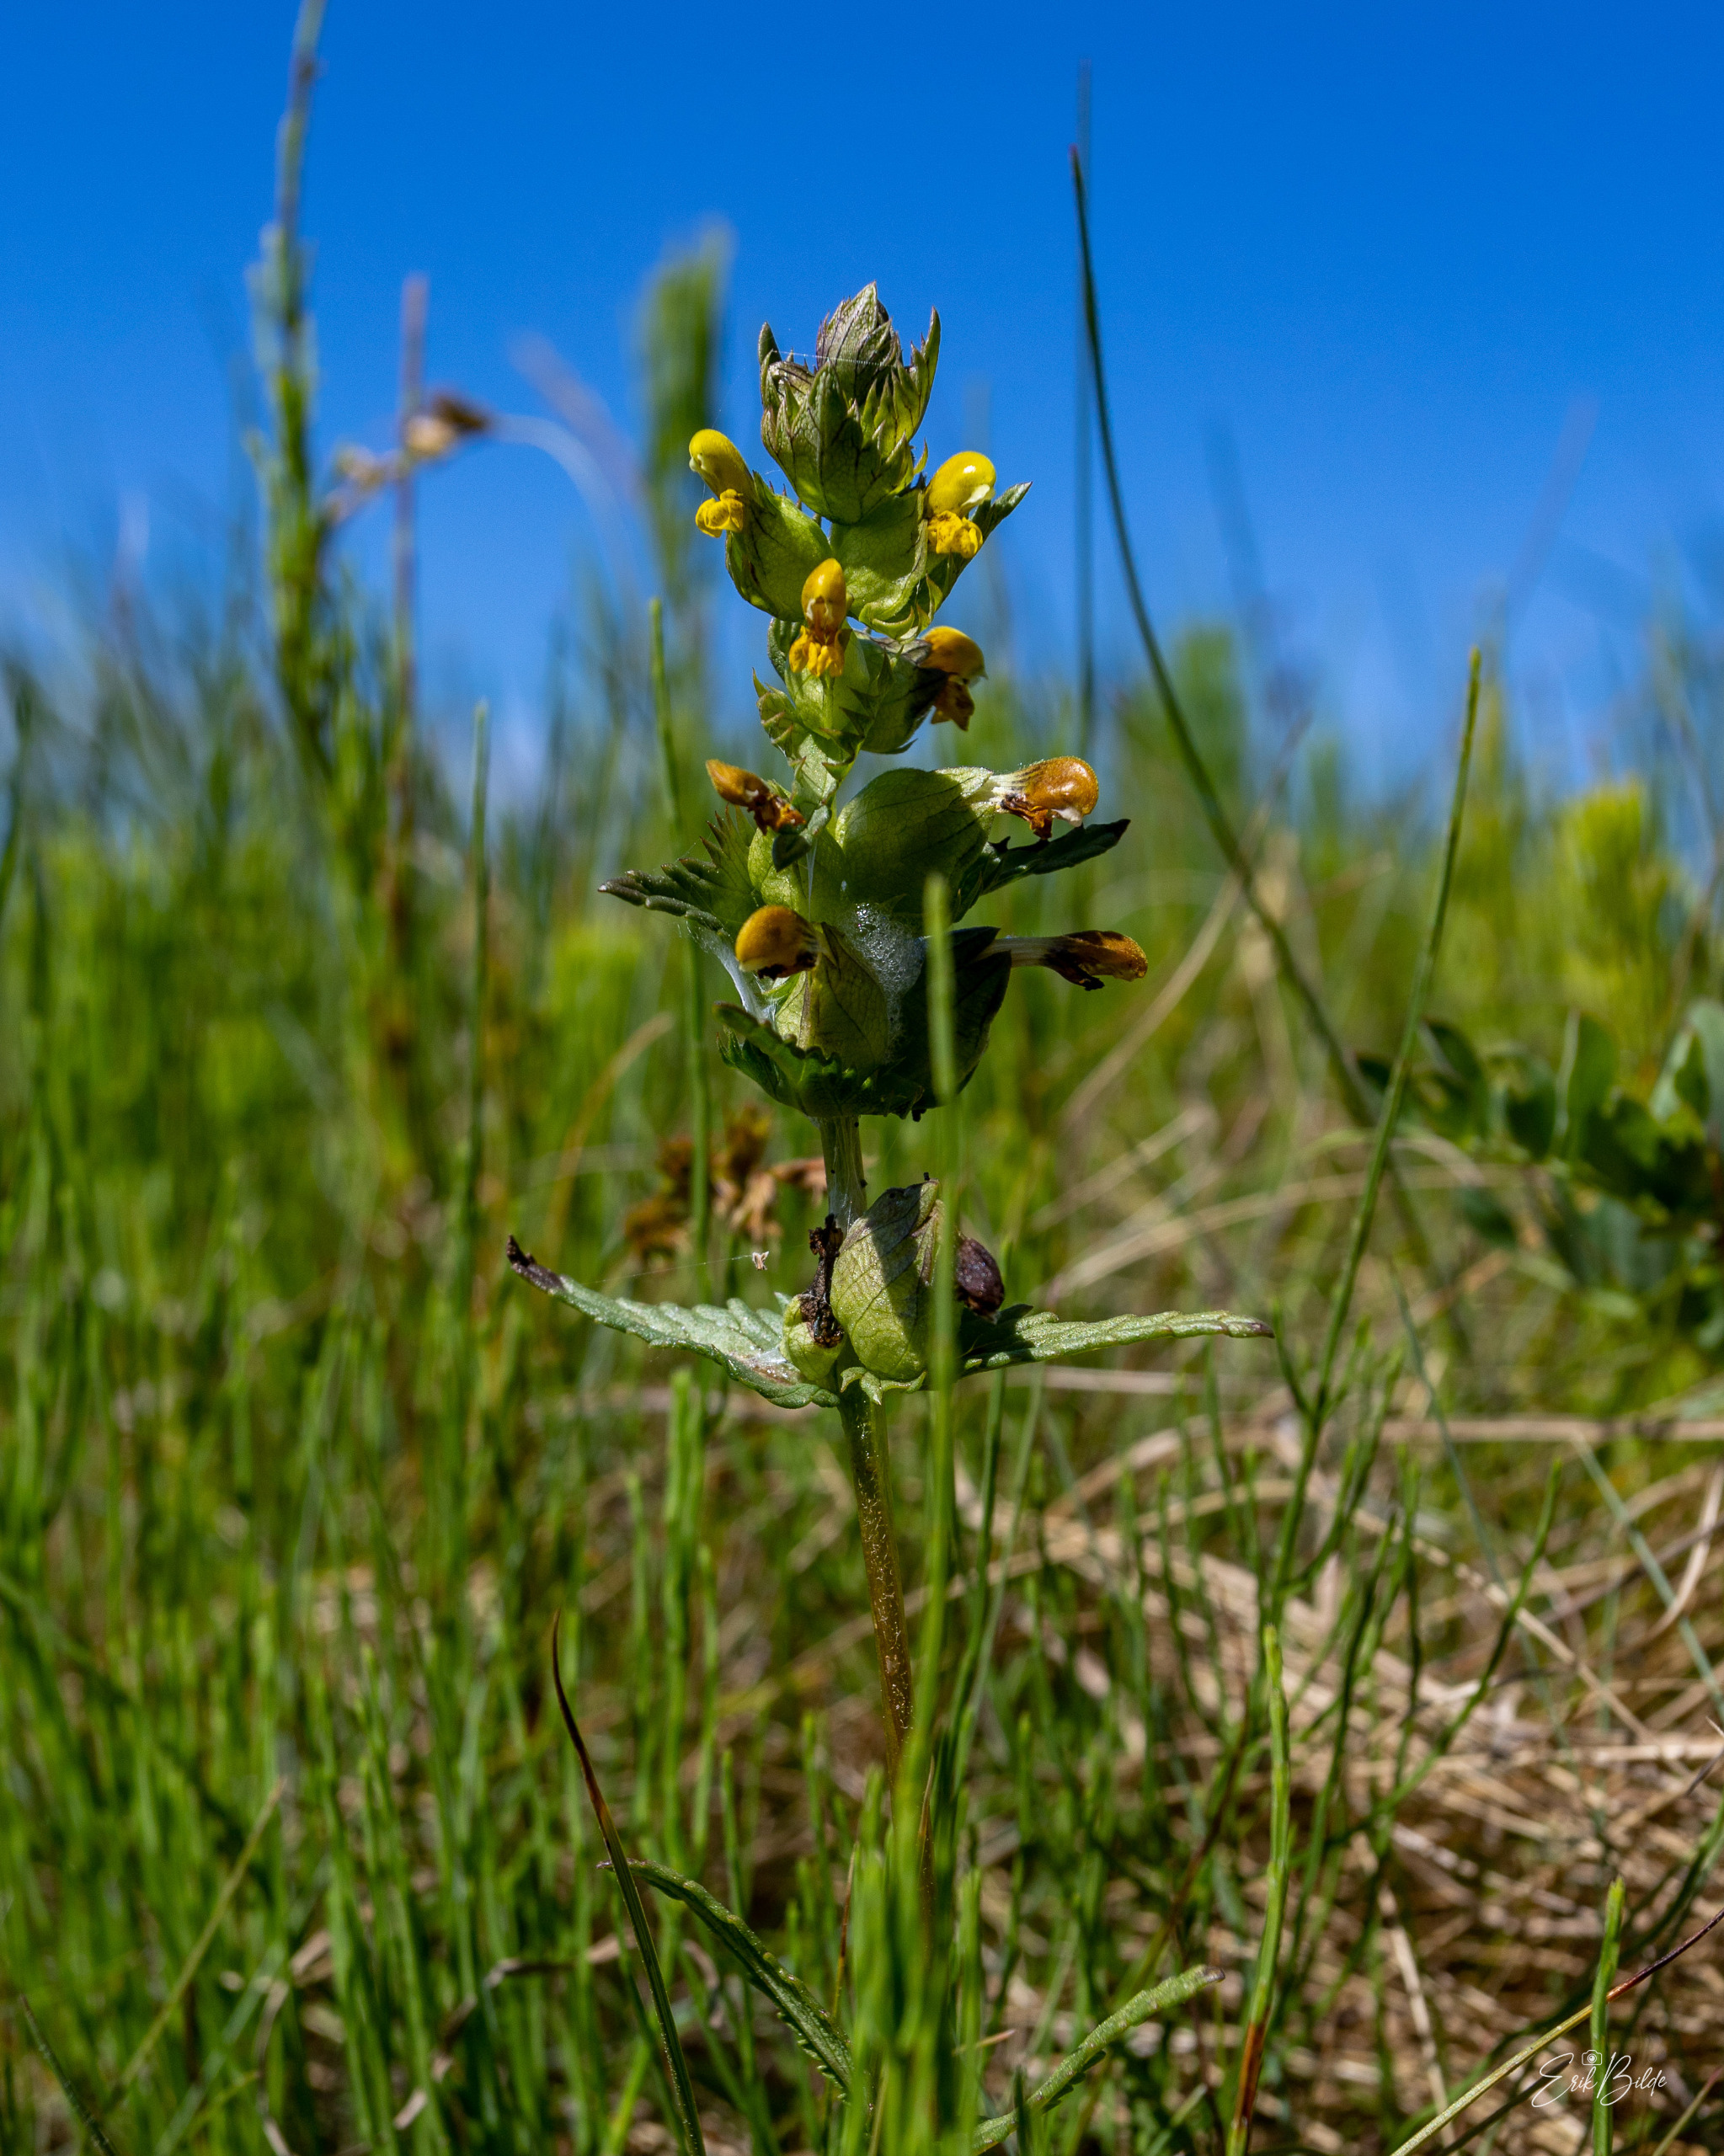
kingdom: Plantae
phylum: Tracheophyta
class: Magnoliopsida
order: Lamiales
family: Orobanchaceae
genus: Rhinanthus
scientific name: Rhinanthus minor
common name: Liden skjaller
